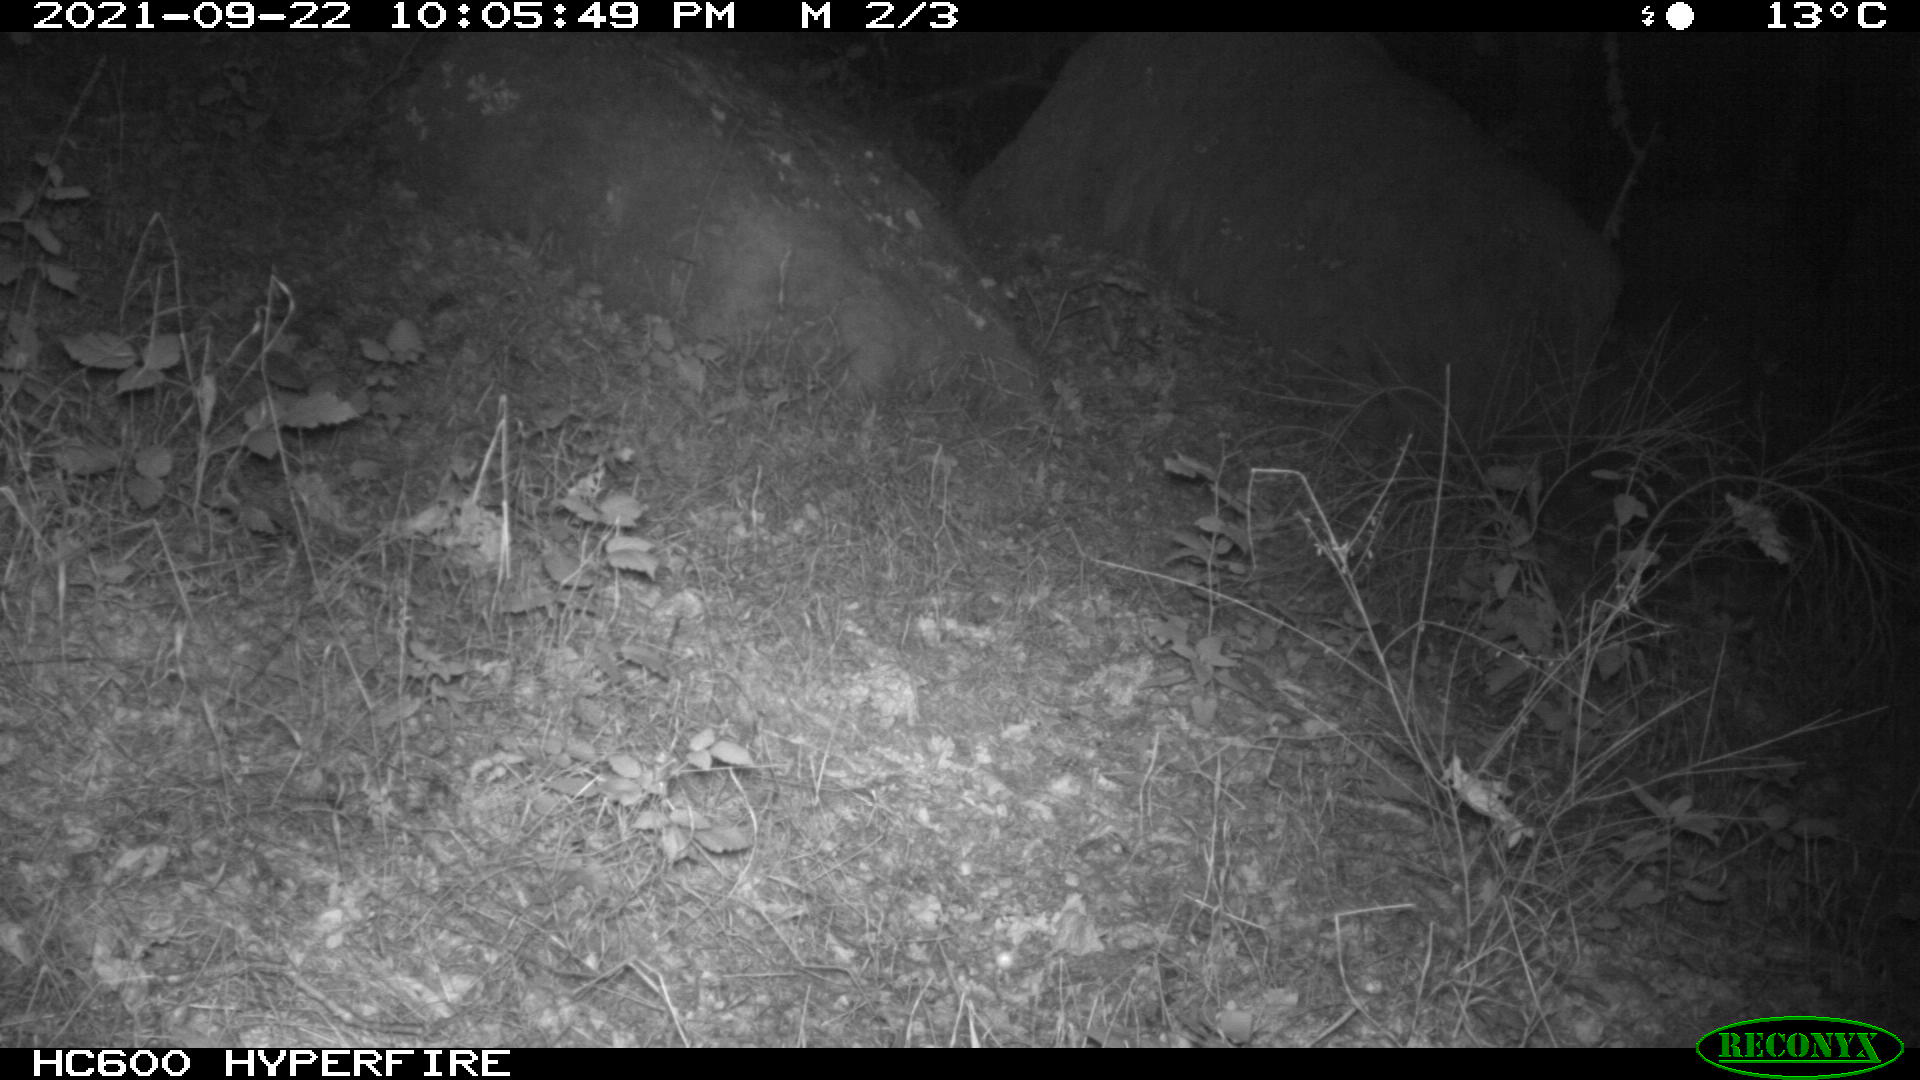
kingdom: Animalia
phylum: Chordata
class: Mammalia
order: Artiodactyla
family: Suidae
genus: Sus
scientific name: Sus scrofa
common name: Wild boar
